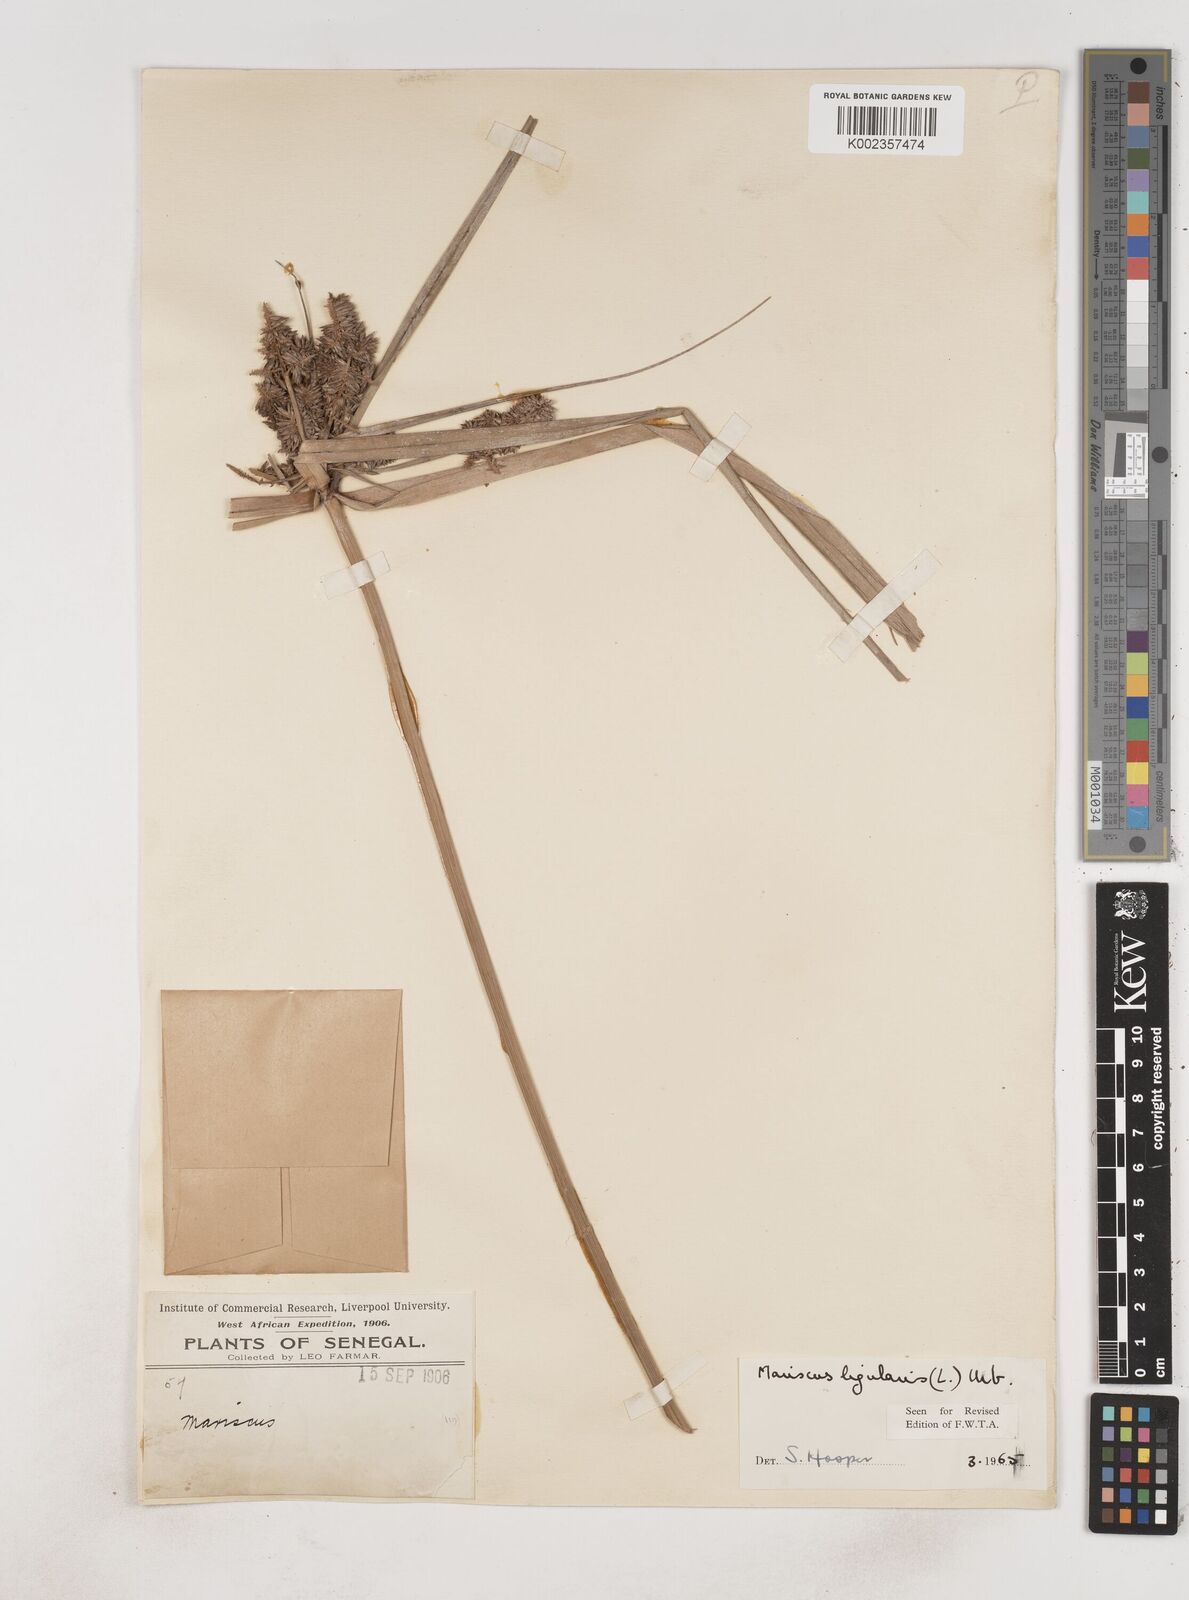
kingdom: Plantae
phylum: Tracheophyta
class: Liliopsida
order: Poales
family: Cyperaceae
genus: Cyperus
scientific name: Cyperus ligularis
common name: Swamp flat sedge
